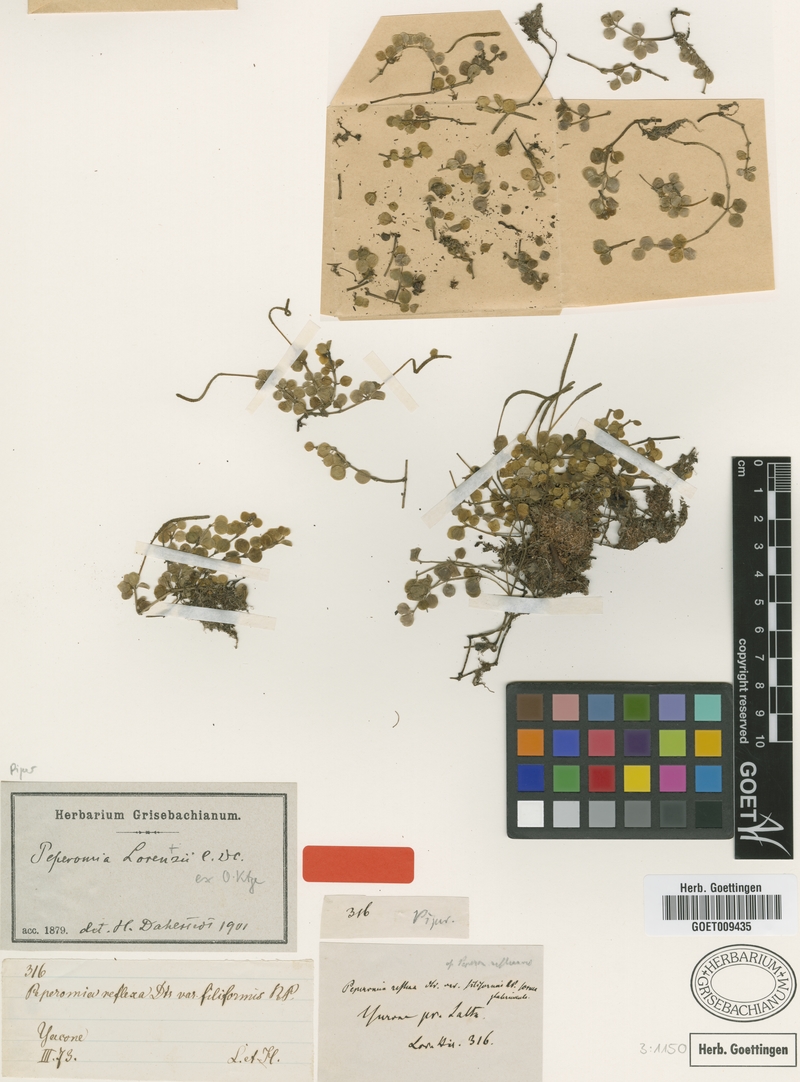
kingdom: Plantae
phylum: Tracheophyta
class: Magnoliopsida
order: Piperales
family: Piperaceae
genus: Peperomia
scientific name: Peperomia lorentzii
